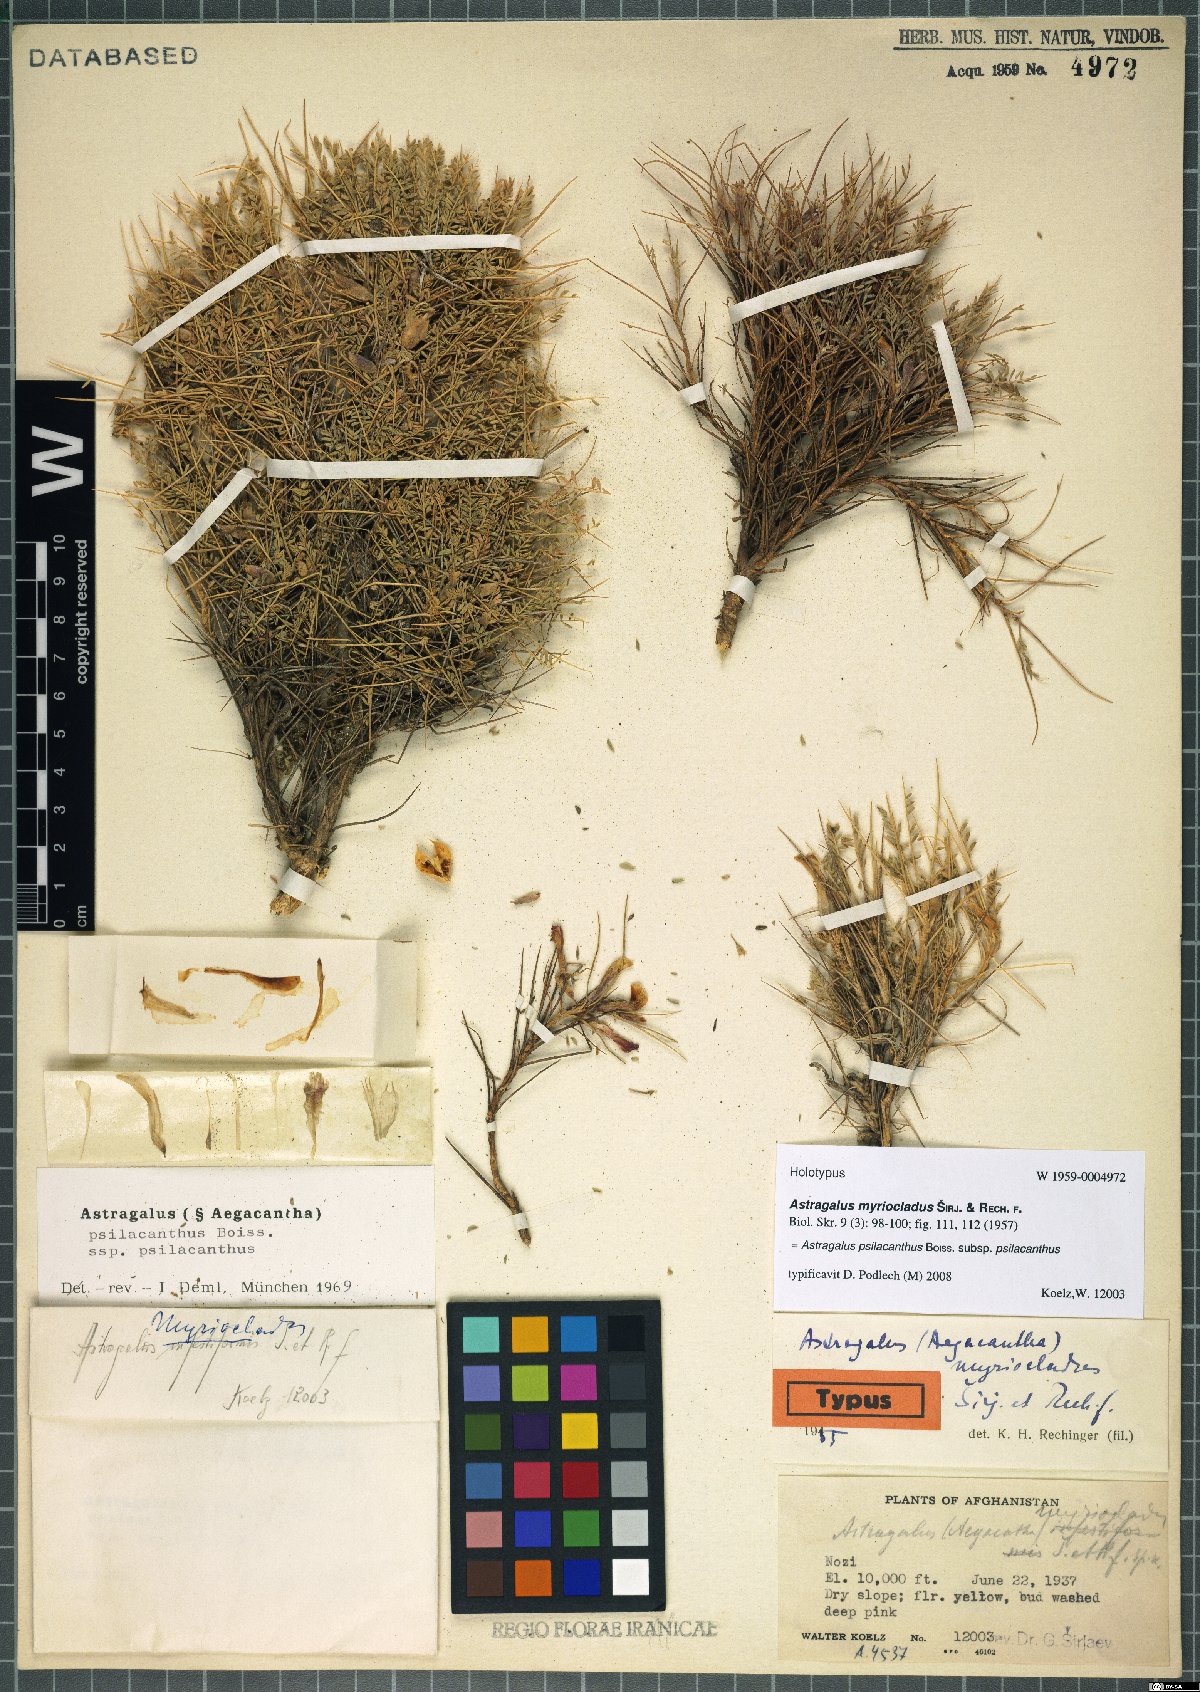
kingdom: Plantae
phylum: Tracheophyta
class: Magnoliopsida
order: Fabales
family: Fabaceae
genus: Astragalus
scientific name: Astragalus psilacanthus
